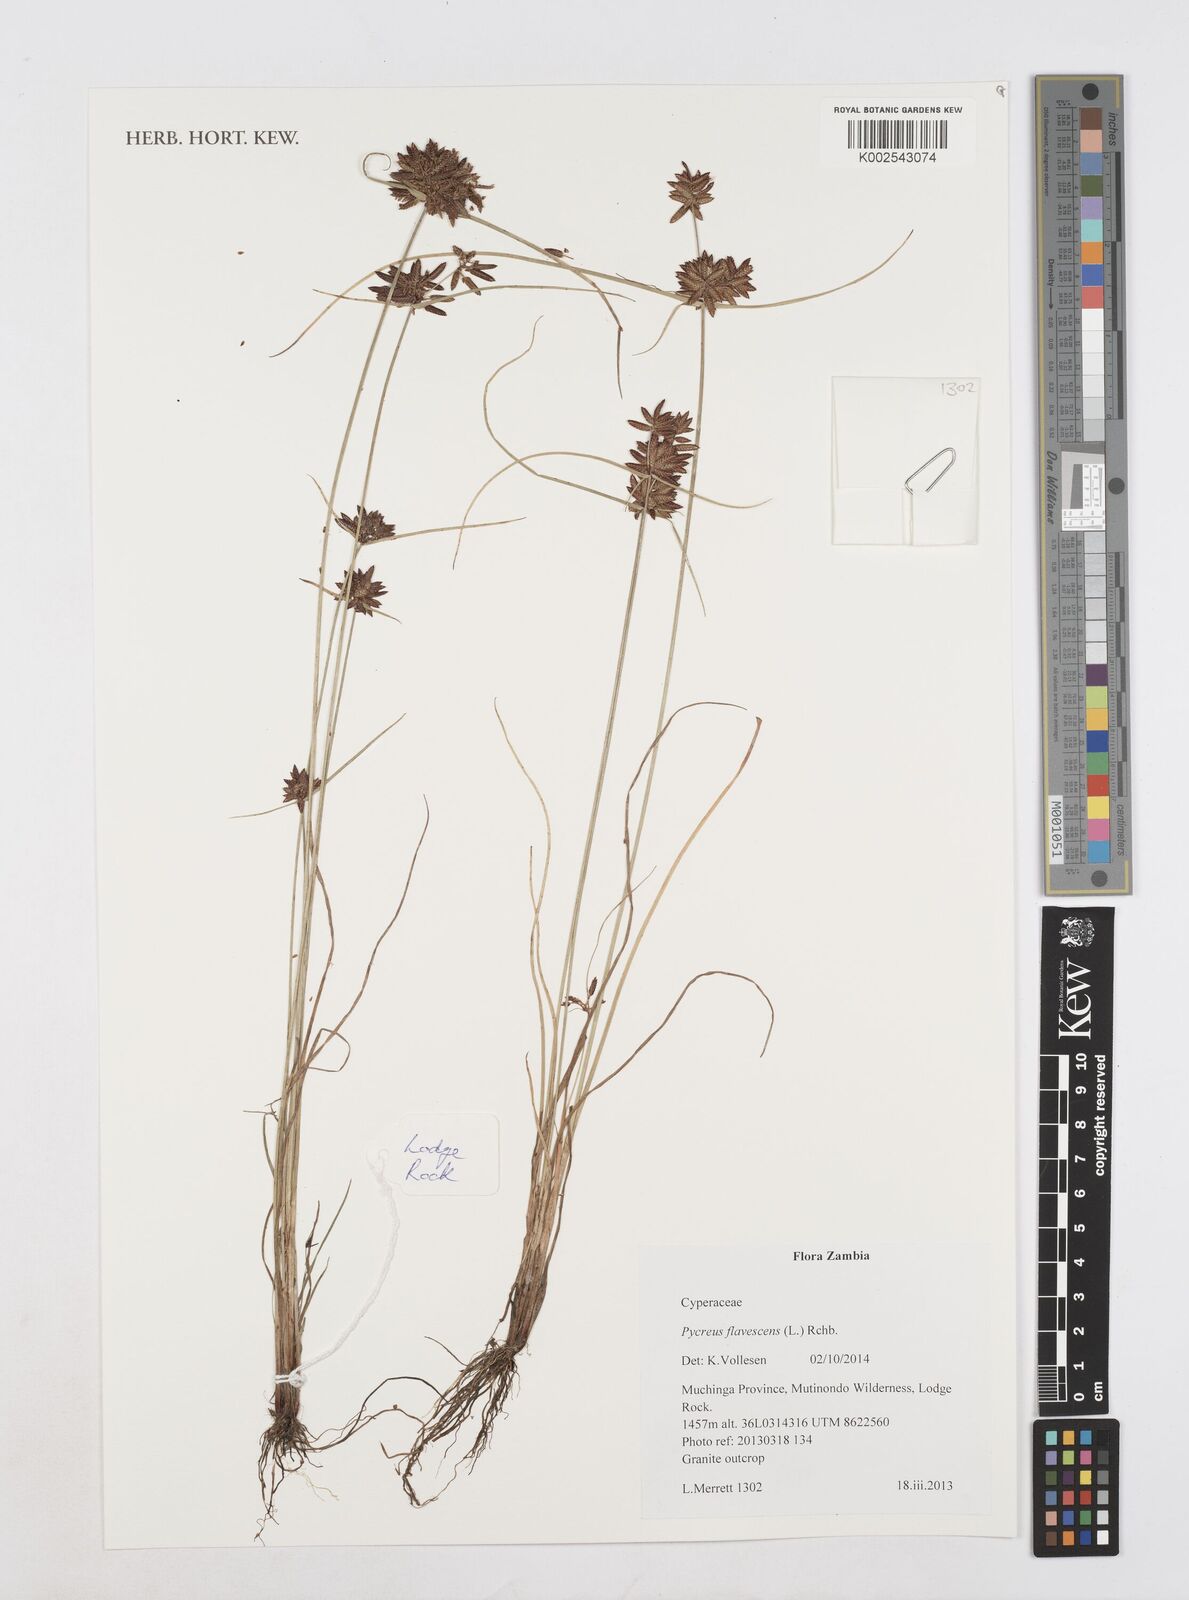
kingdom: Plantae
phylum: Tracheophyta
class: Liliopsida
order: Poales
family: Cyperaceae
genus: Cyperus
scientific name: Cyperus flavescens
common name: Yellow galingale
